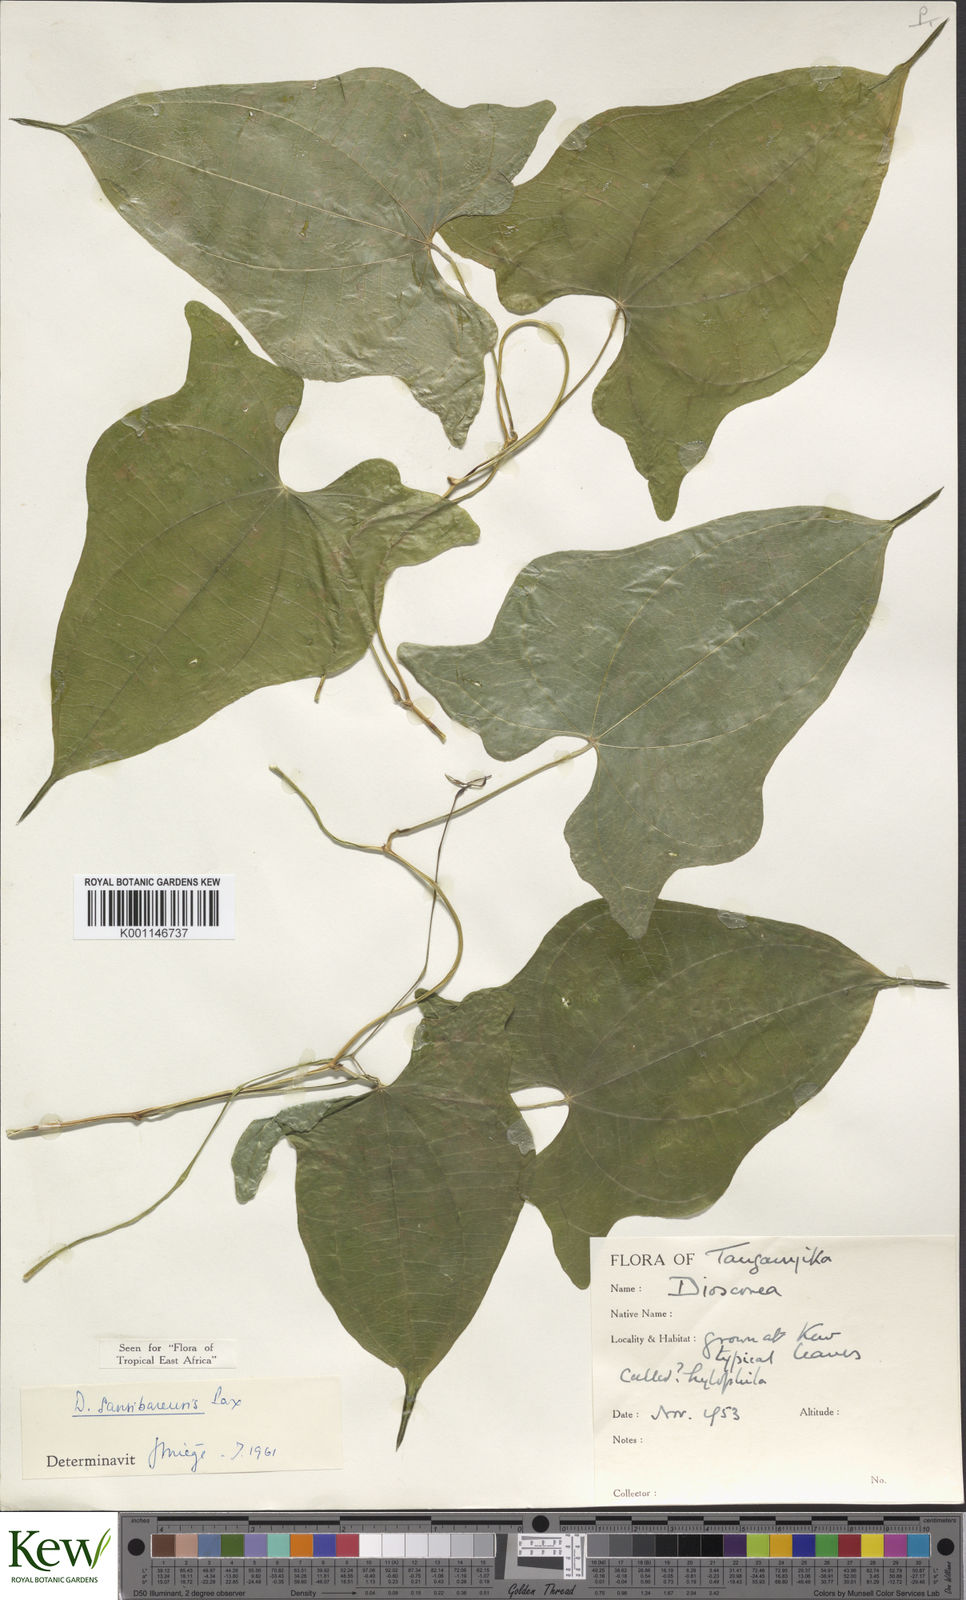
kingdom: Plantae
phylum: Tracheophyta
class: Liliopsida
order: Dioscoreales
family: Dioscoreaceae
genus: Dioscorea
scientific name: Dioscorea sansibarensis
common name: Zanzibar yam
